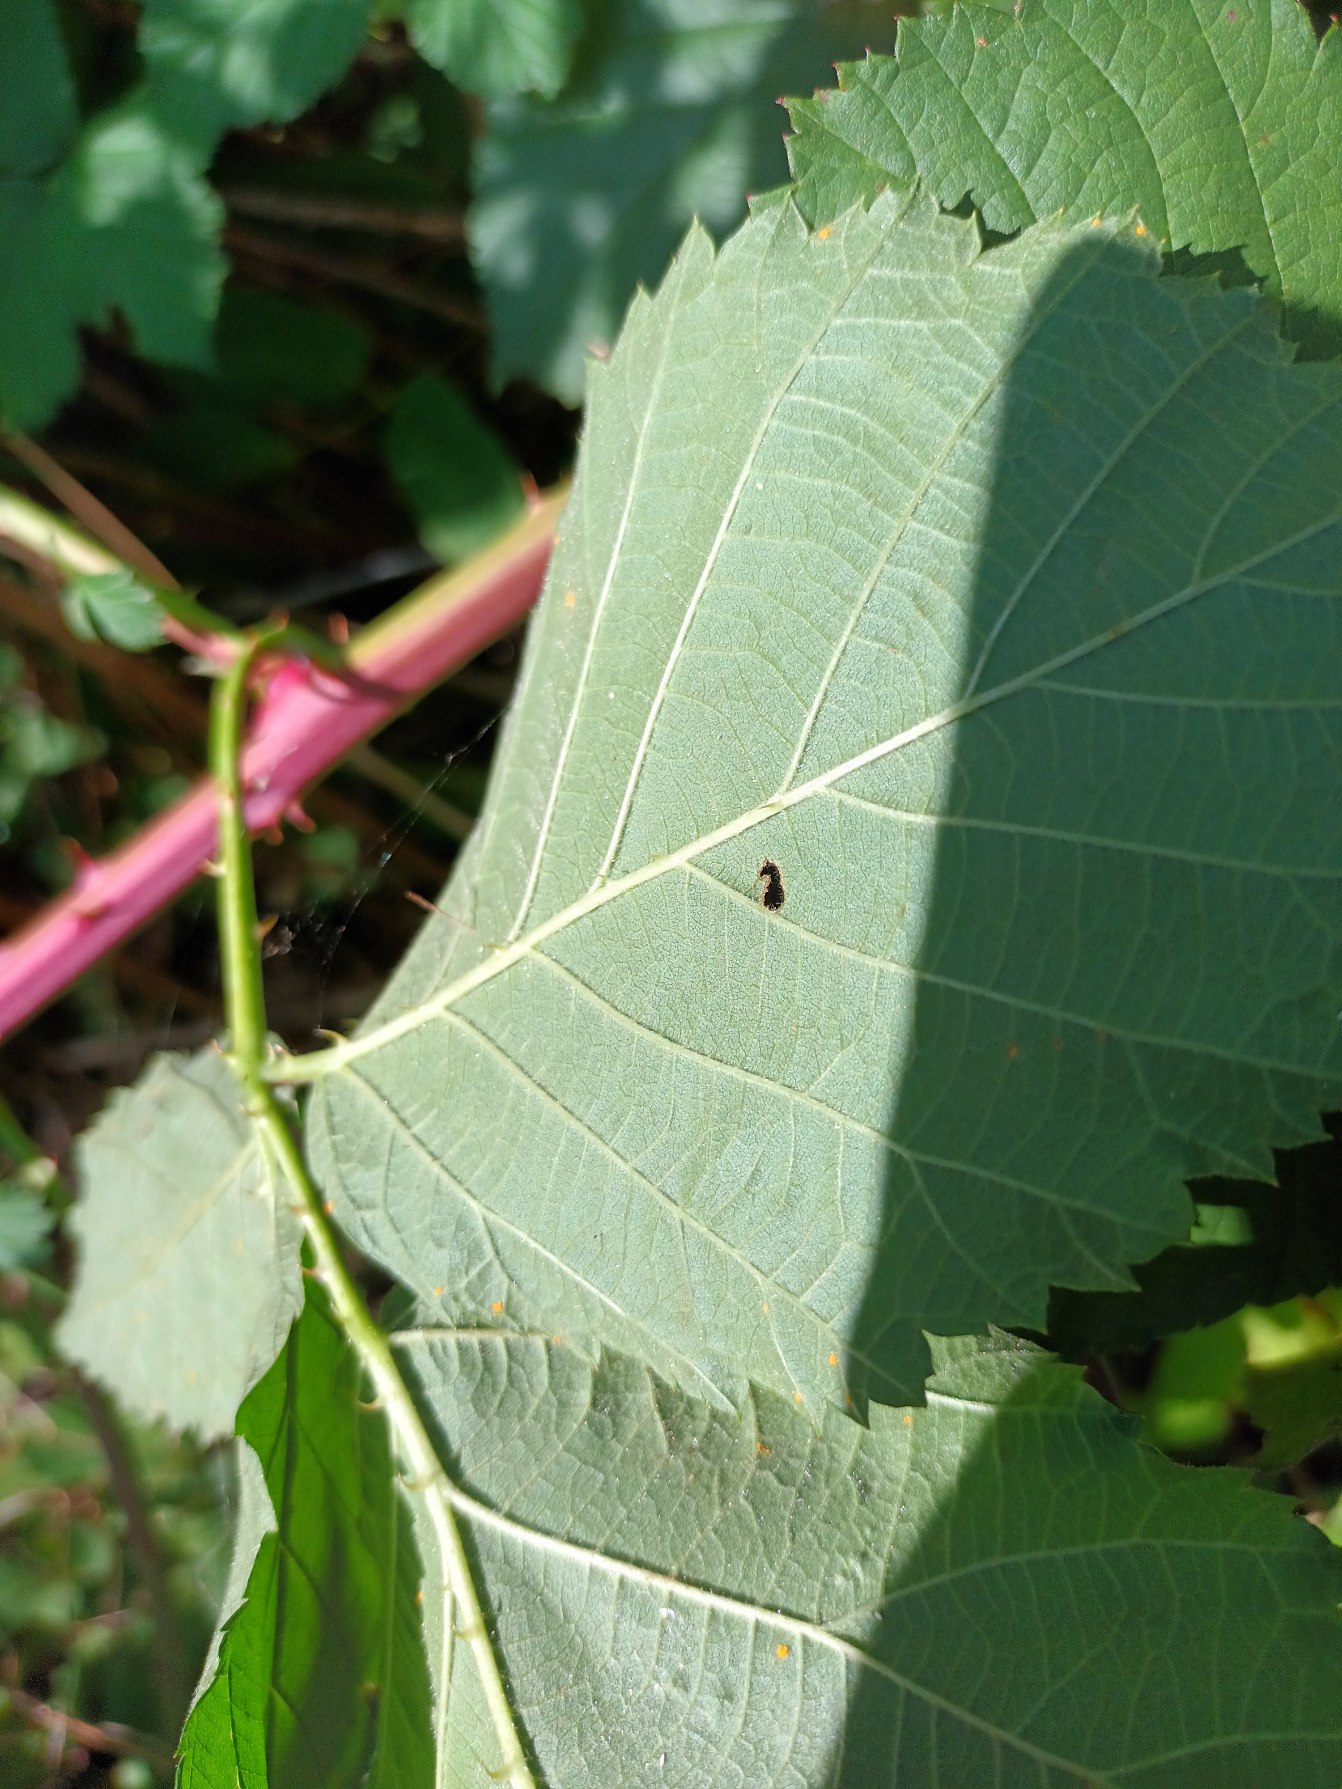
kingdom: Plantae
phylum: Tracheophyta
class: Magnoliopsida
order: Rosales
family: Rosaceae
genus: Rubus
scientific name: Rubus wahlbergii
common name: Wahlbergs hasselbrombær
